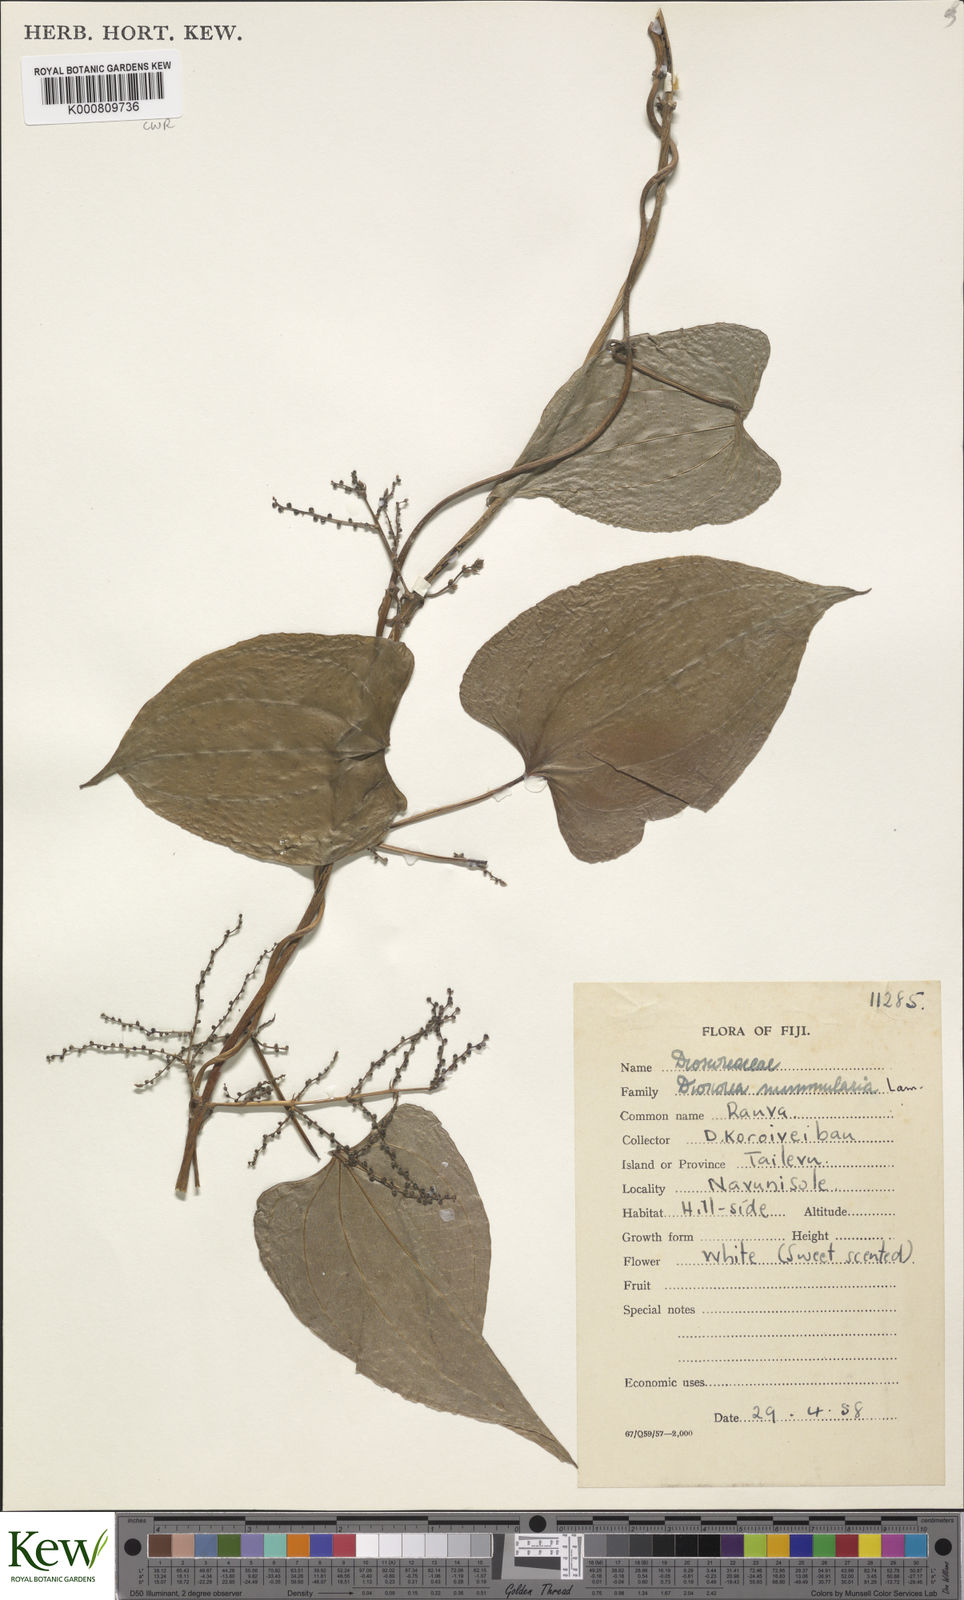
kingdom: Plantae
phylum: Tracheophyta
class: Liliopsida
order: Dioscoreales
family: Dioscoreaceae
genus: Dioscorea
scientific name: Dioscorea nummularia
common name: Pacific yam
